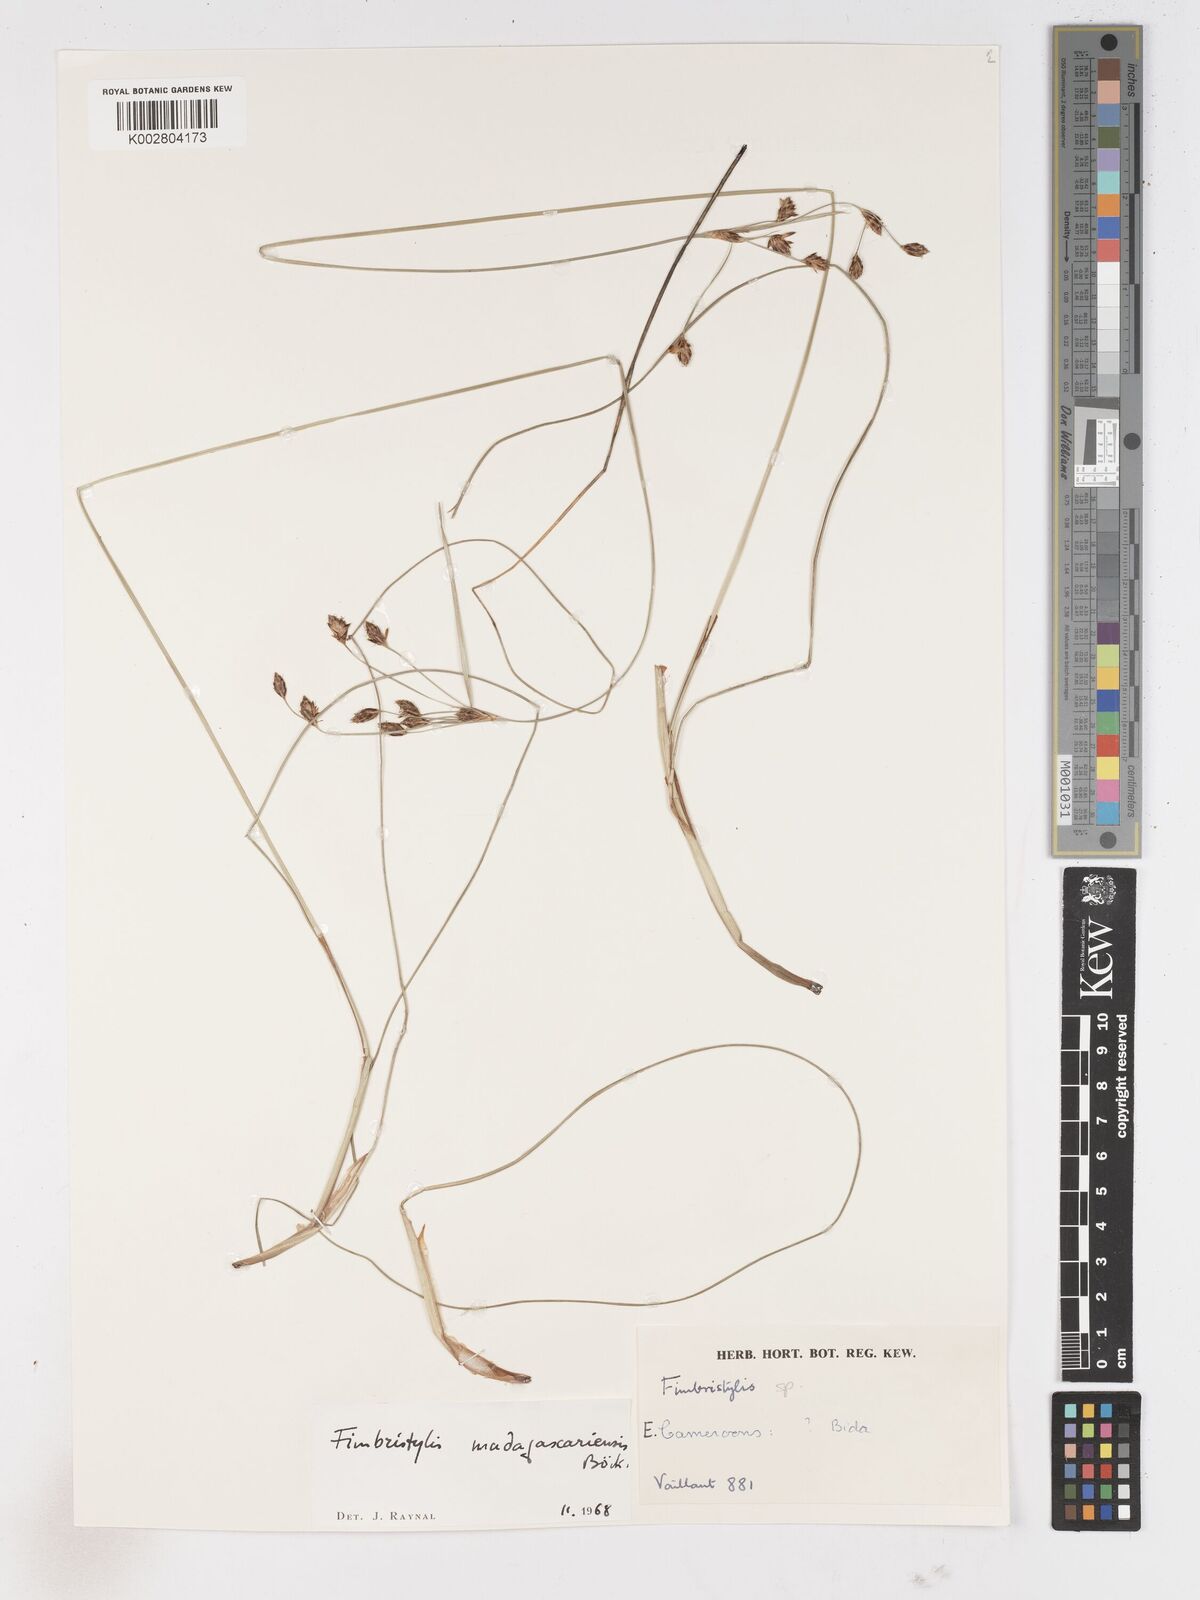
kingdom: Plantae
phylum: Tracheophyta
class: Liliopsida
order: Poales
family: Cyperaceae
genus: Fimbristylis
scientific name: Fimbristylis madagascariensis
